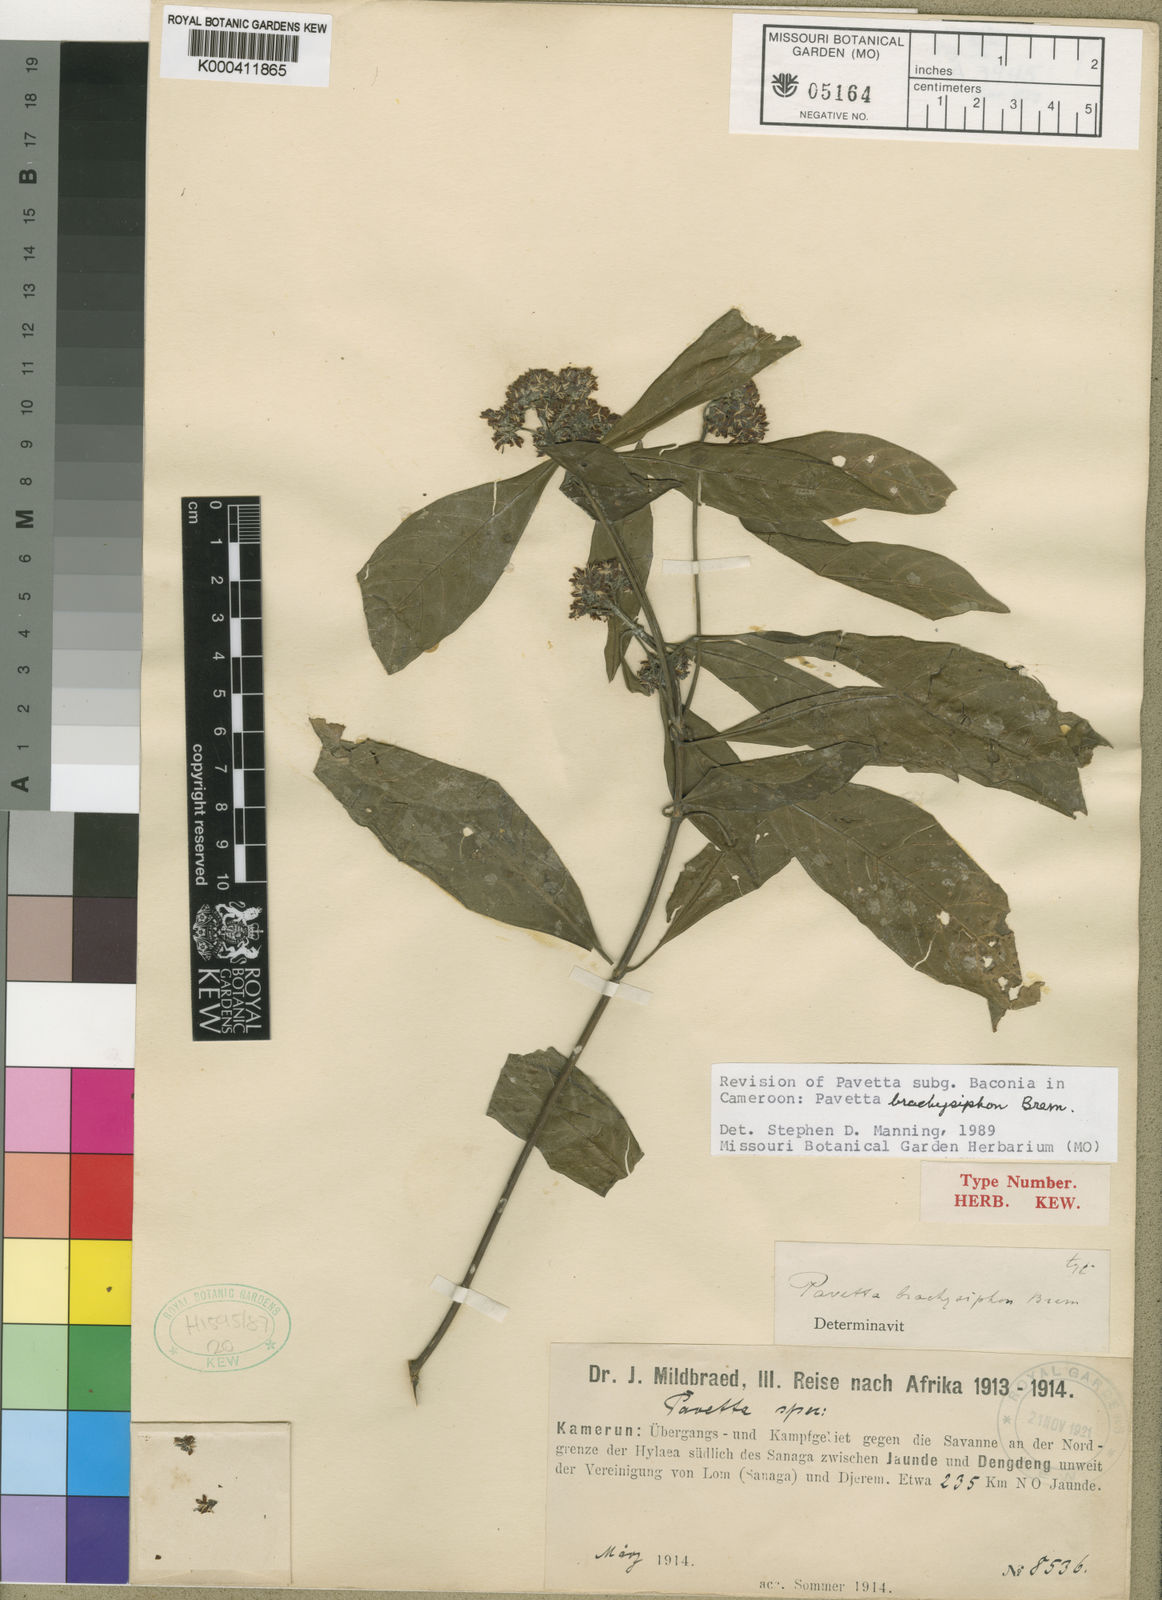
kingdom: Plantae
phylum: Tracheophyta
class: Magnoliopsida
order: Gentianales
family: Rubiaceae
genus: Pavetta
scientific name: Pavetta brachysiphon
